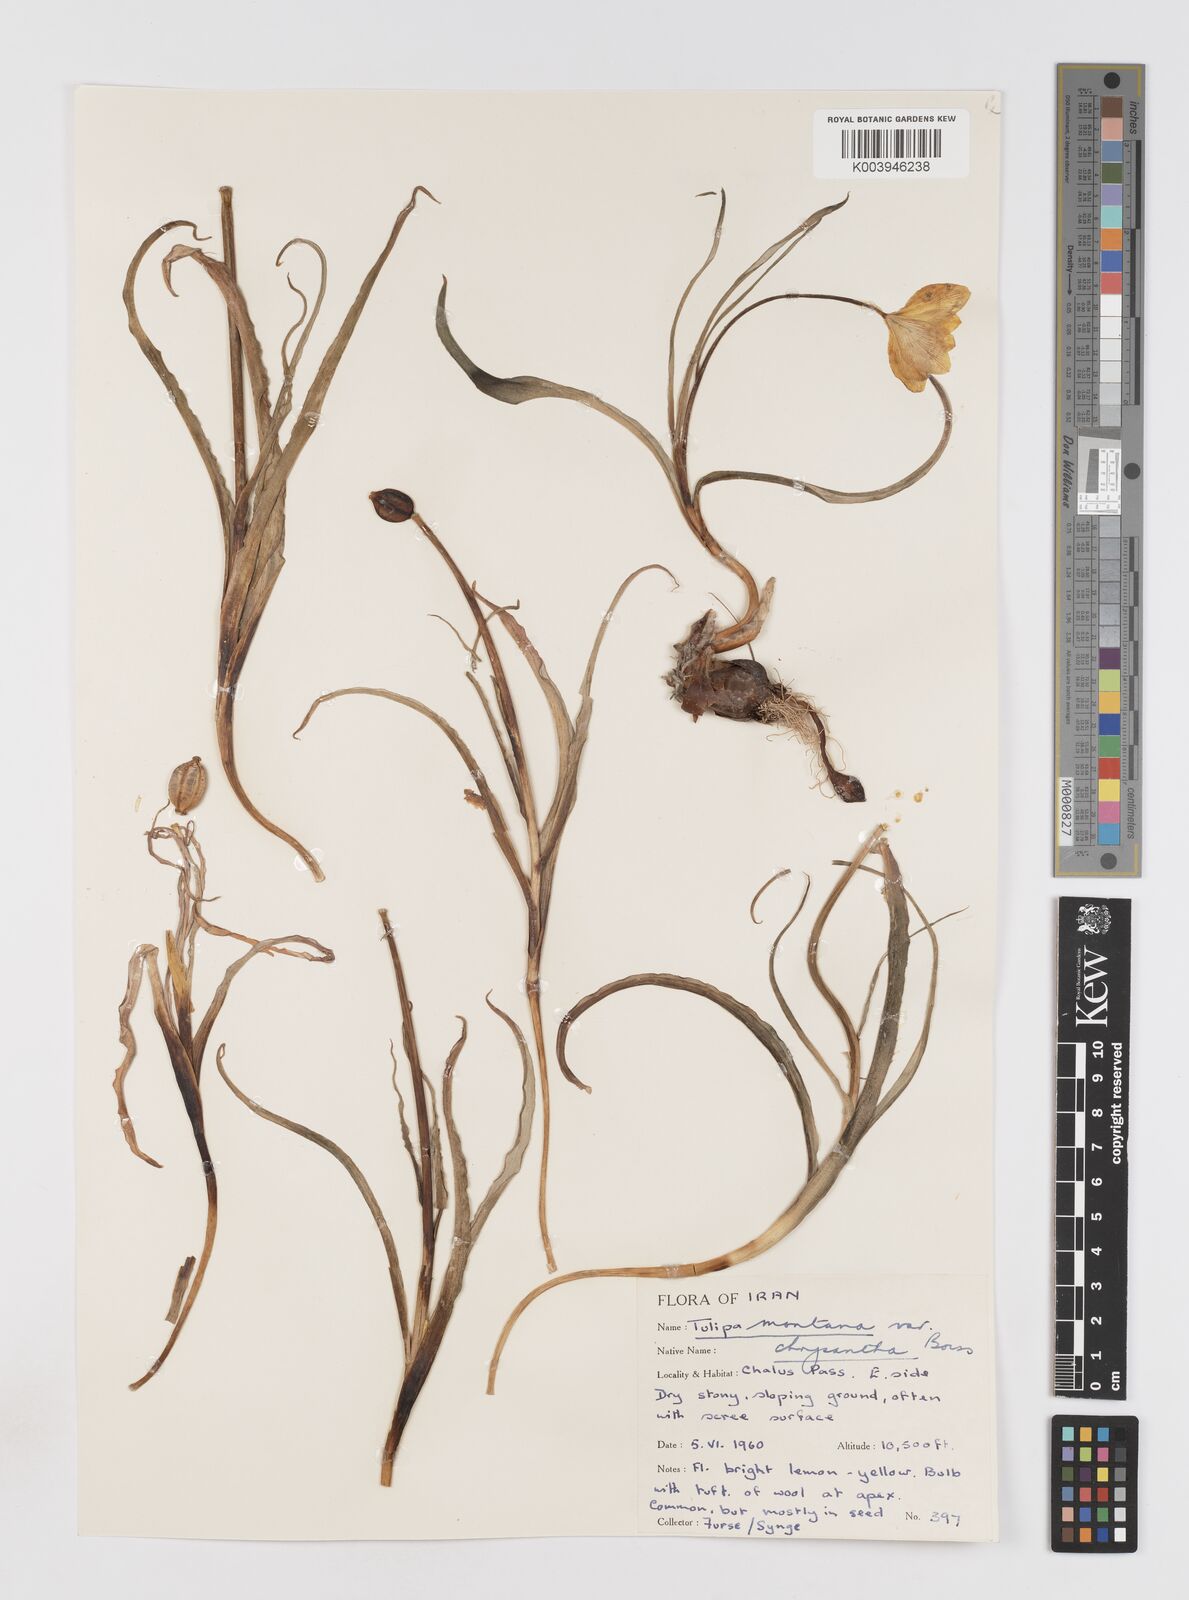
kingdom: Plantae
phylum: Tracheophyta
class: Liliopsida
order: Liliales
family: Liliaceae
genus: Tulipa
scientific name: Tulipa montana
